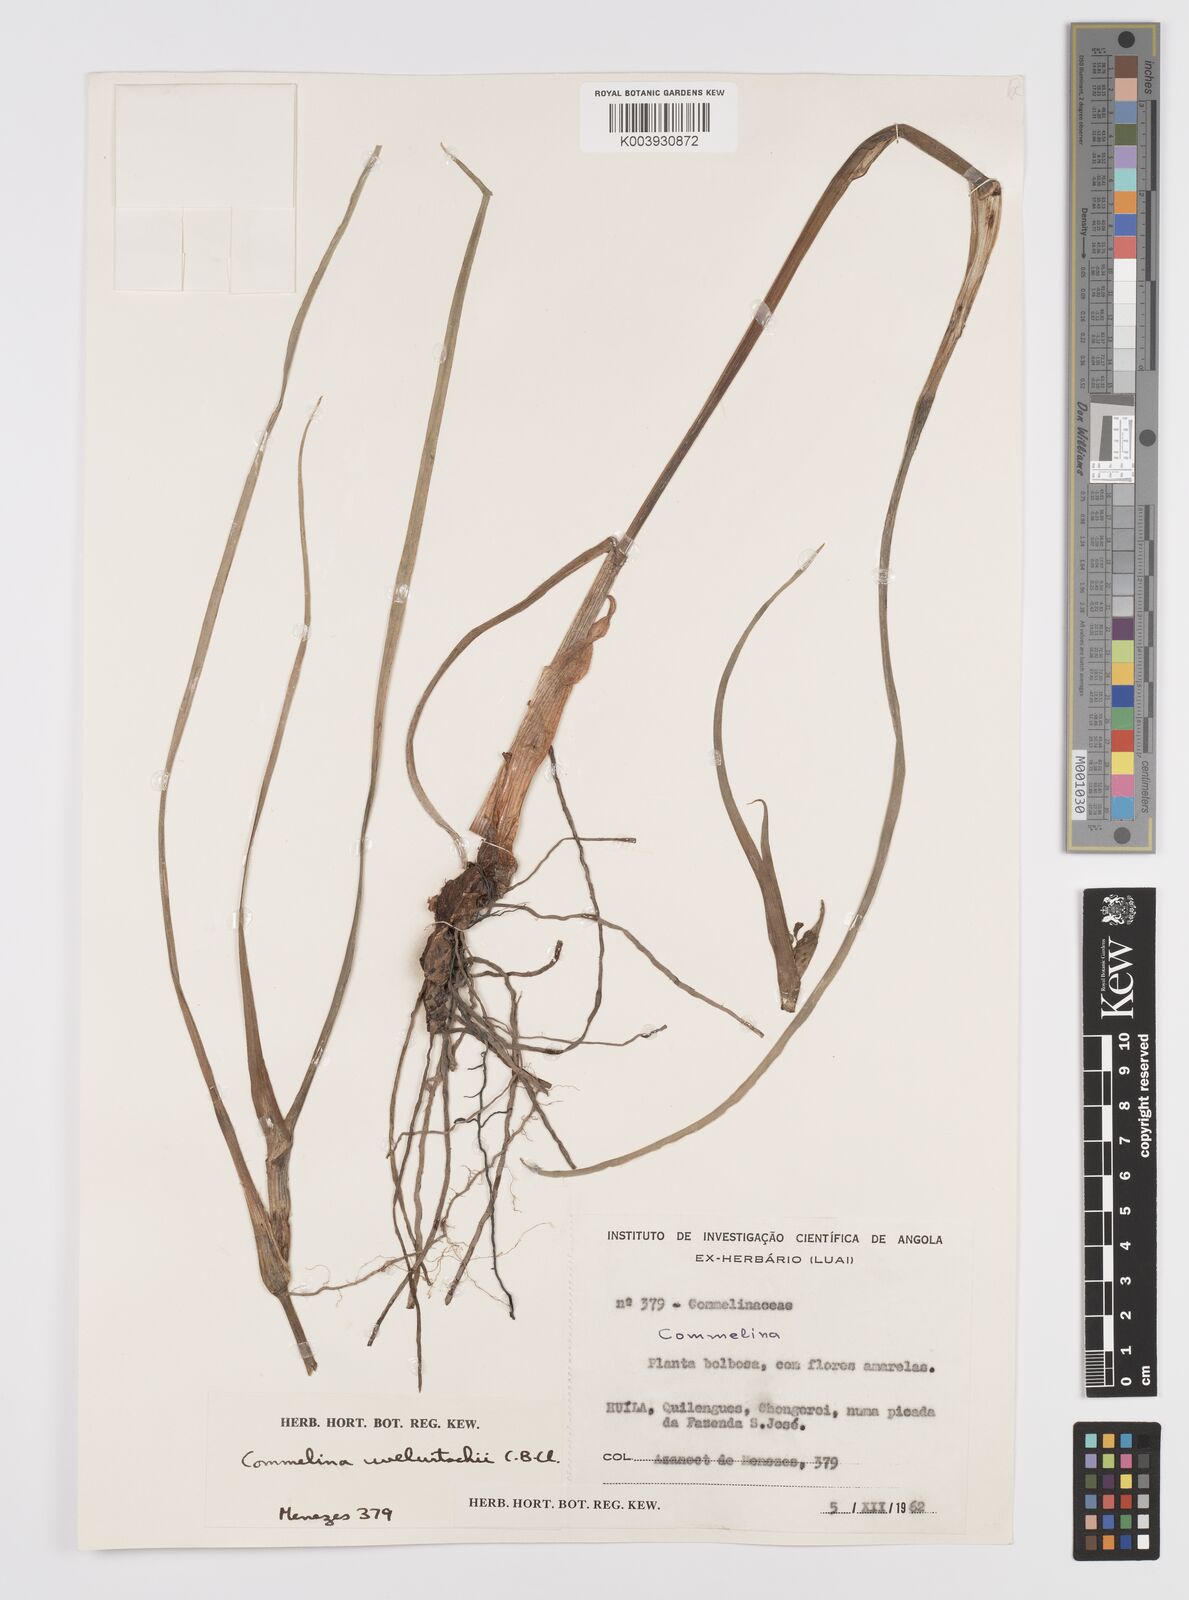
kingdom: Plantae
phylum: Tracheophyta
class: Liliopsida
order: Commelinales
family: Commelinaceae
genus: Commelina
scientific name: Commelina welwitschii
